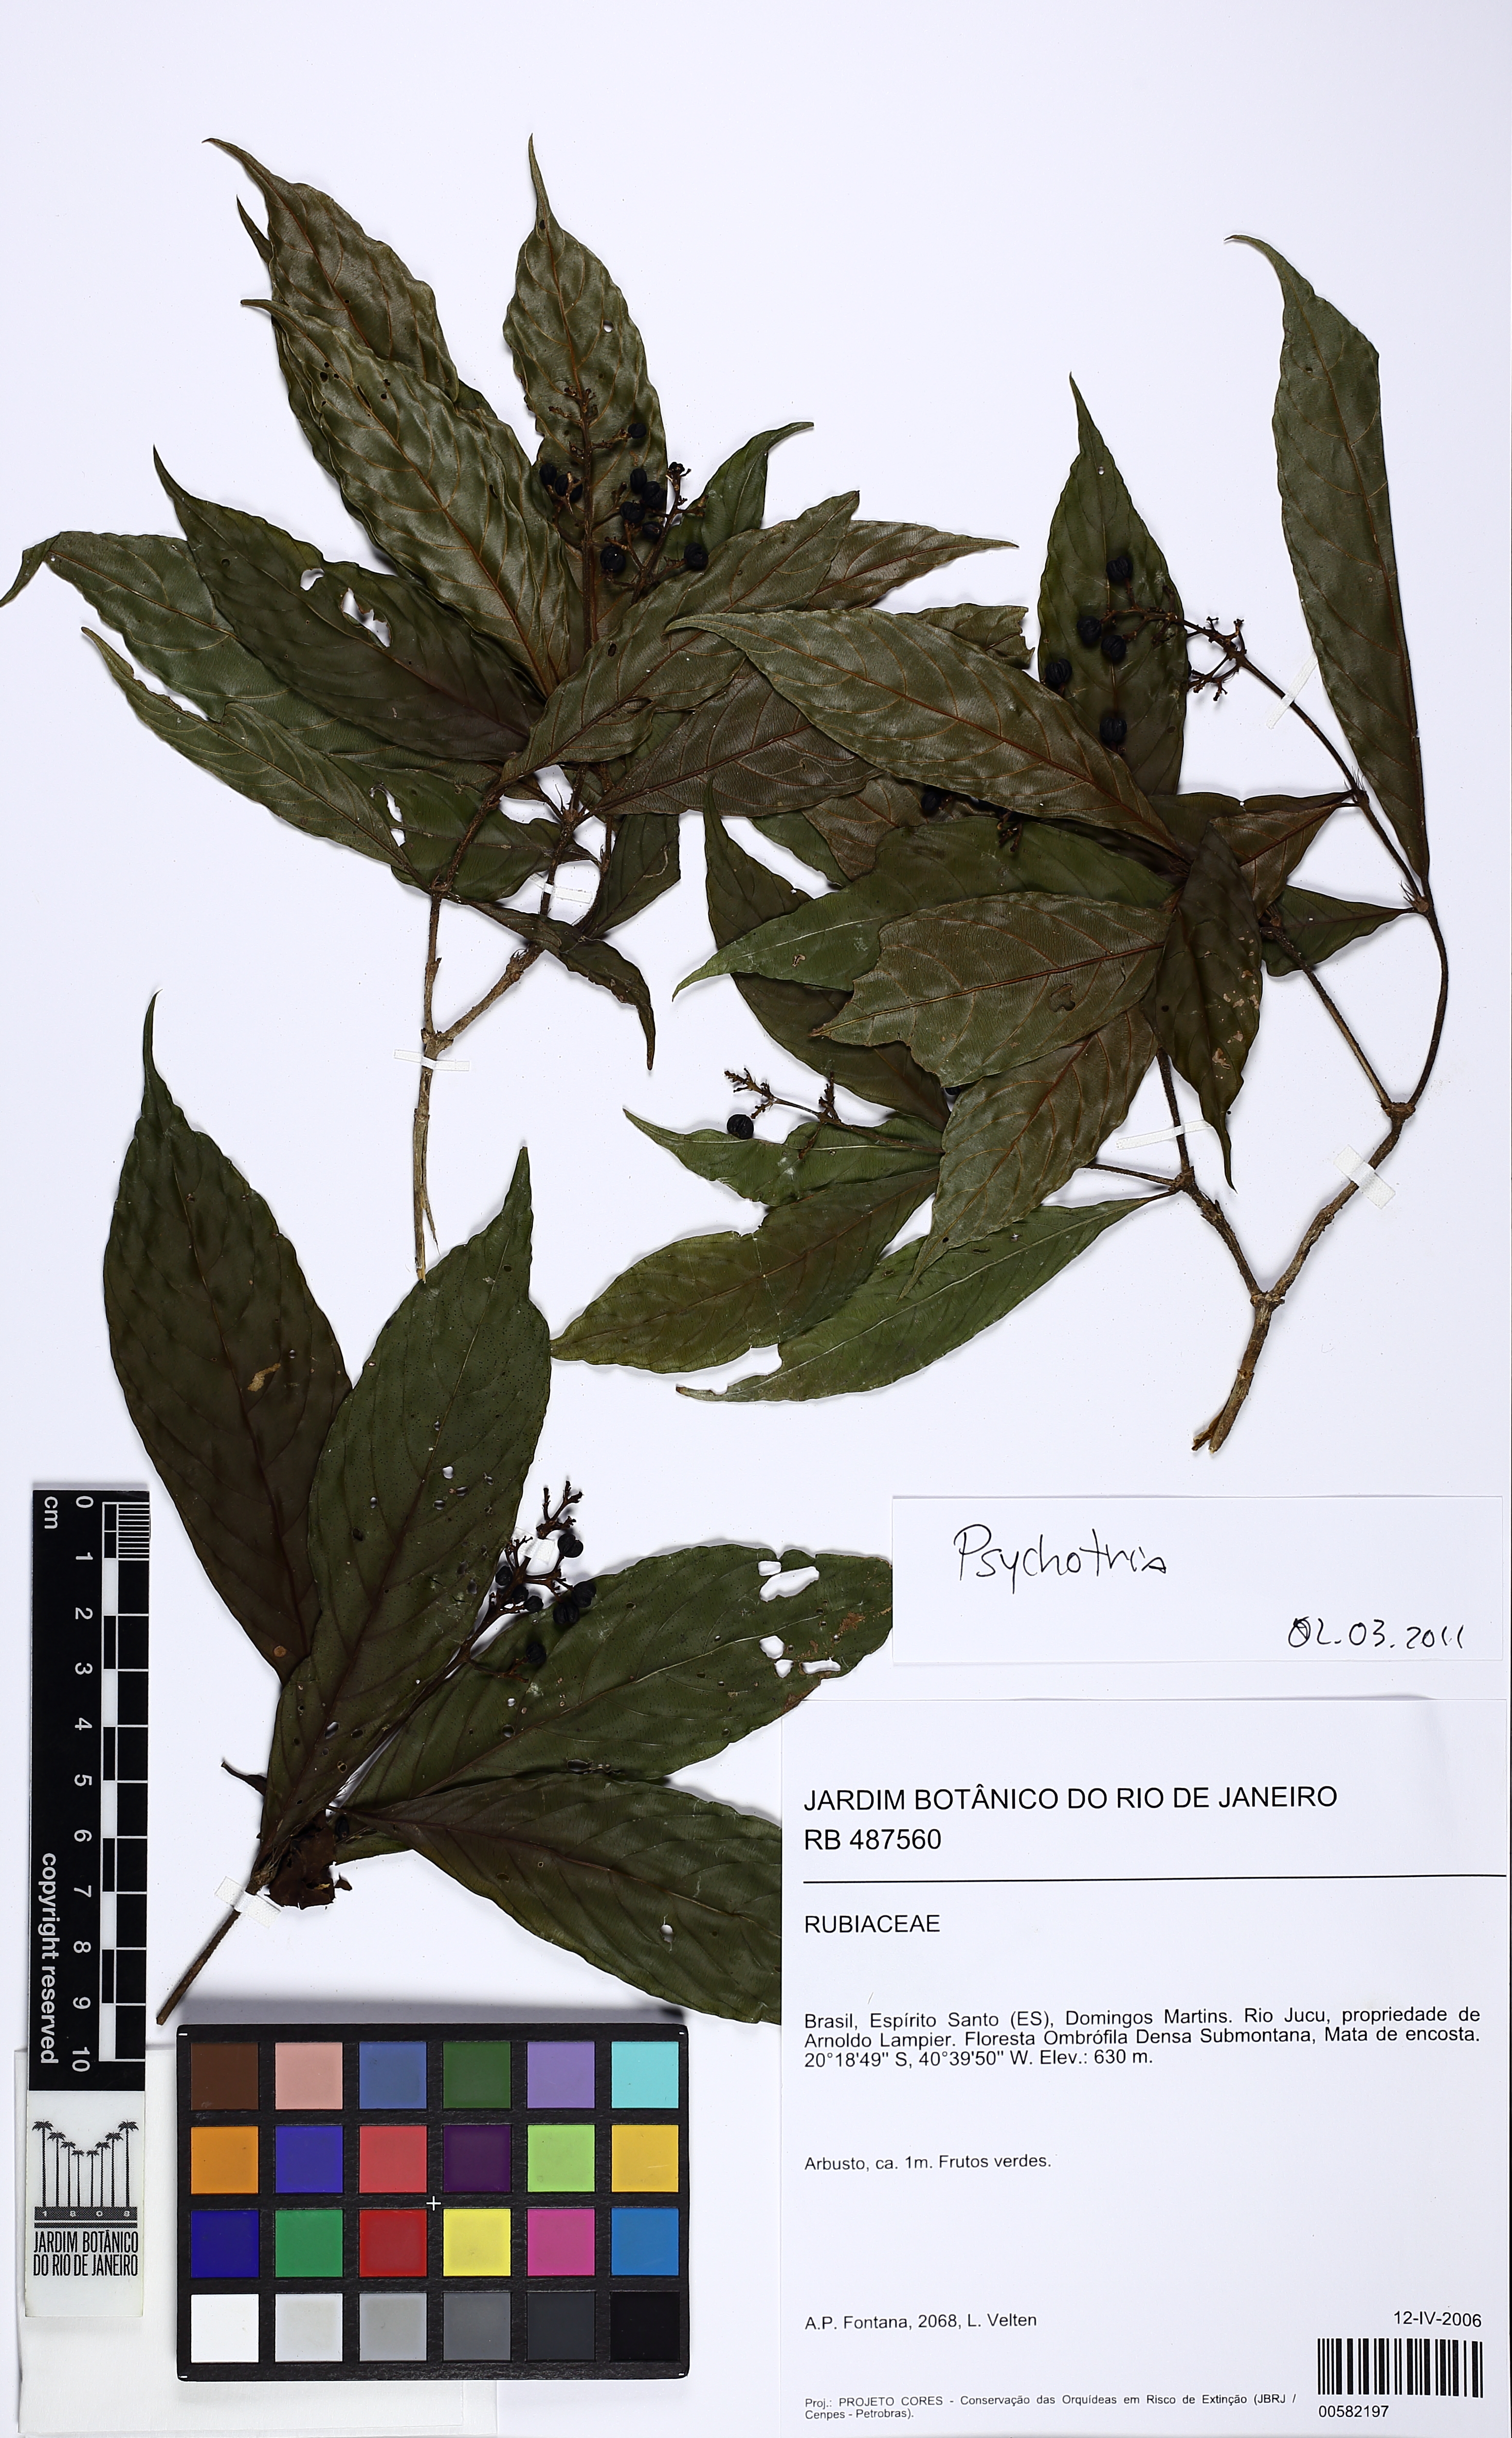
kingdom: Plantae
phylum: Tracheophyta
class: Magnoliopsida
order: Gentianales
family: Rubiaceae
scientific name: Rubiaceae
